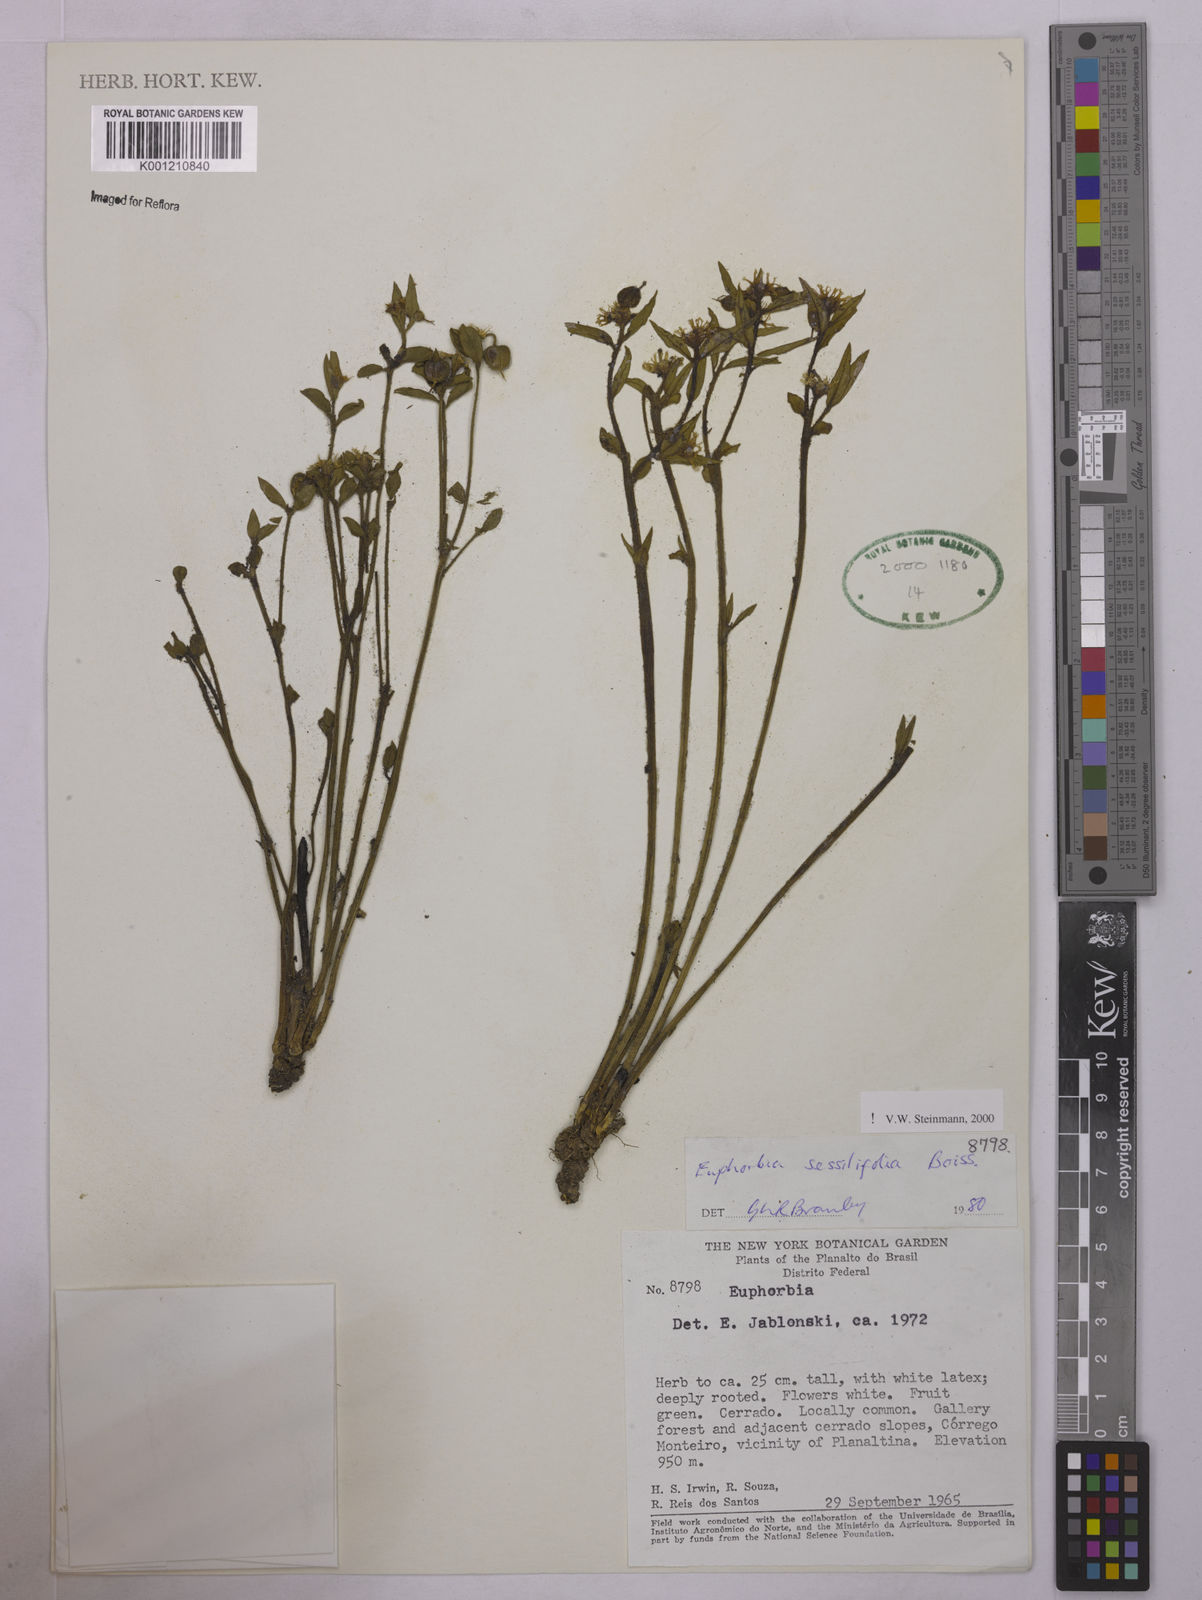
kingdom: Plantae
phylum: Tracheophyta
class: Magnoliopsida
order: Malpighiales
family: Euphorbiaceae
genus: Euphorbia
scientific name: Euphorbia sessilifolia
